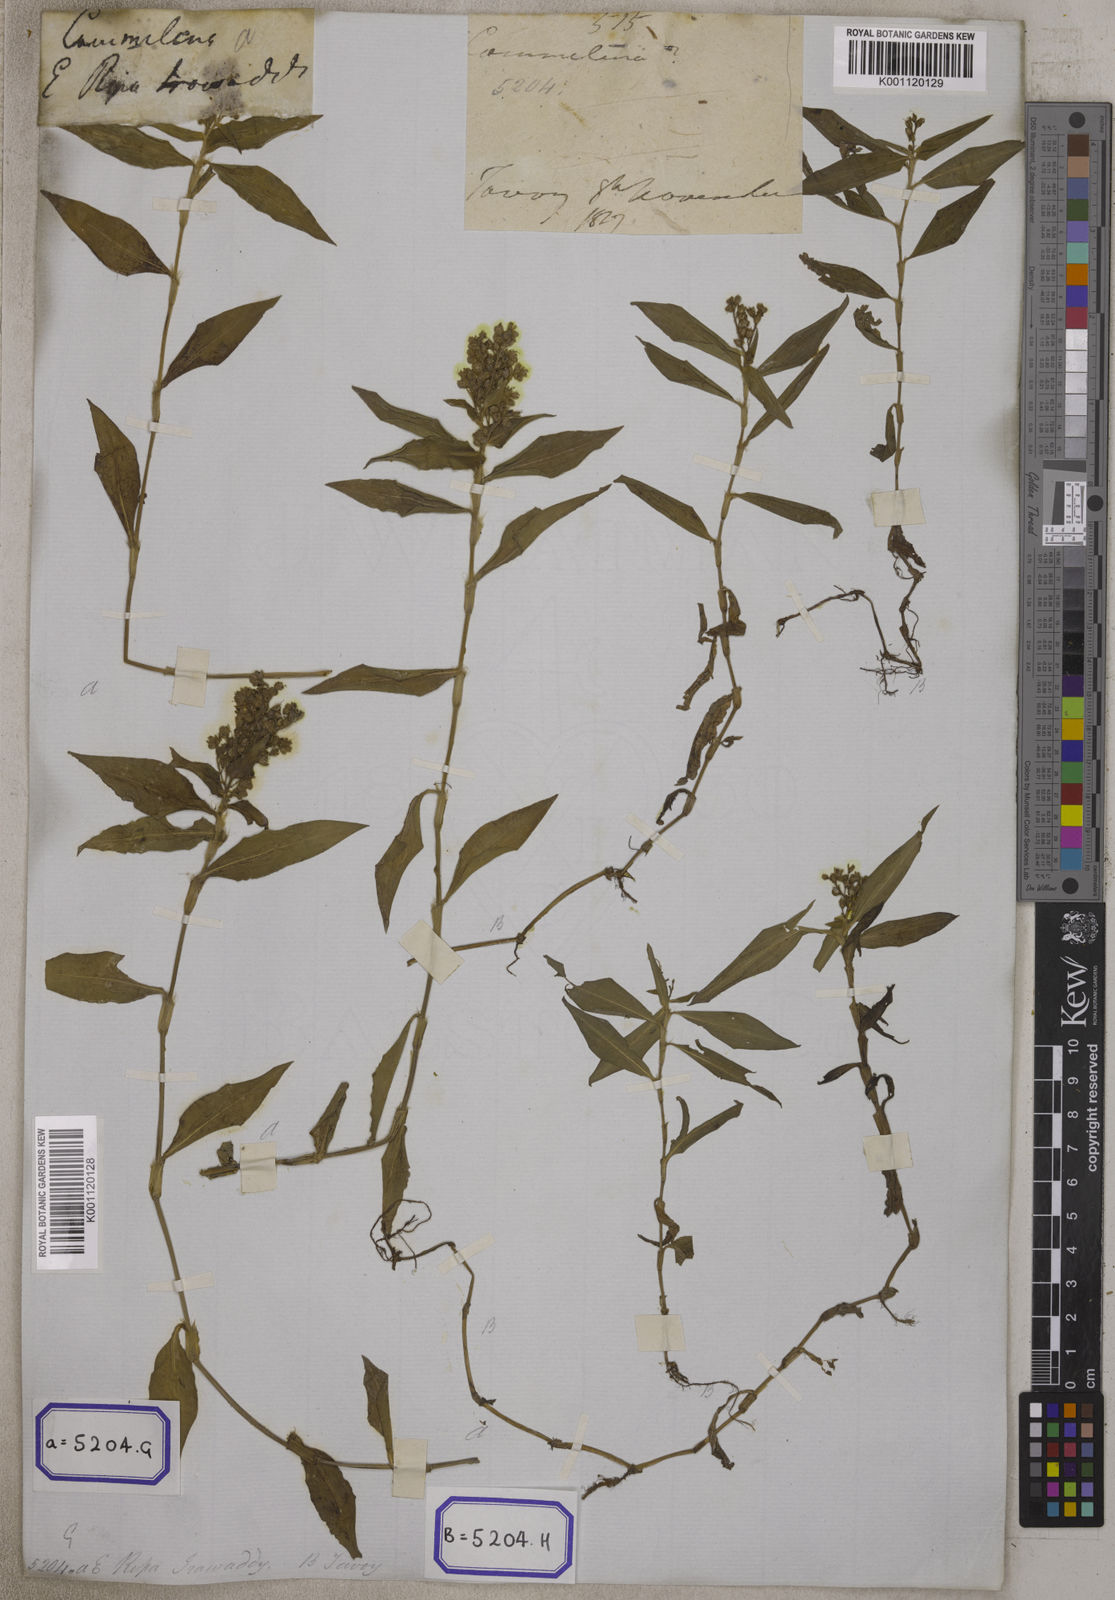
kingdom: Plantae
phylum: Tracheophyta
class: Liliopsida
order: Commelinales
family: Commelinaceae
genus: Floscopa
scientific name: Floscopa scandens
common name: Climbing flower cup
